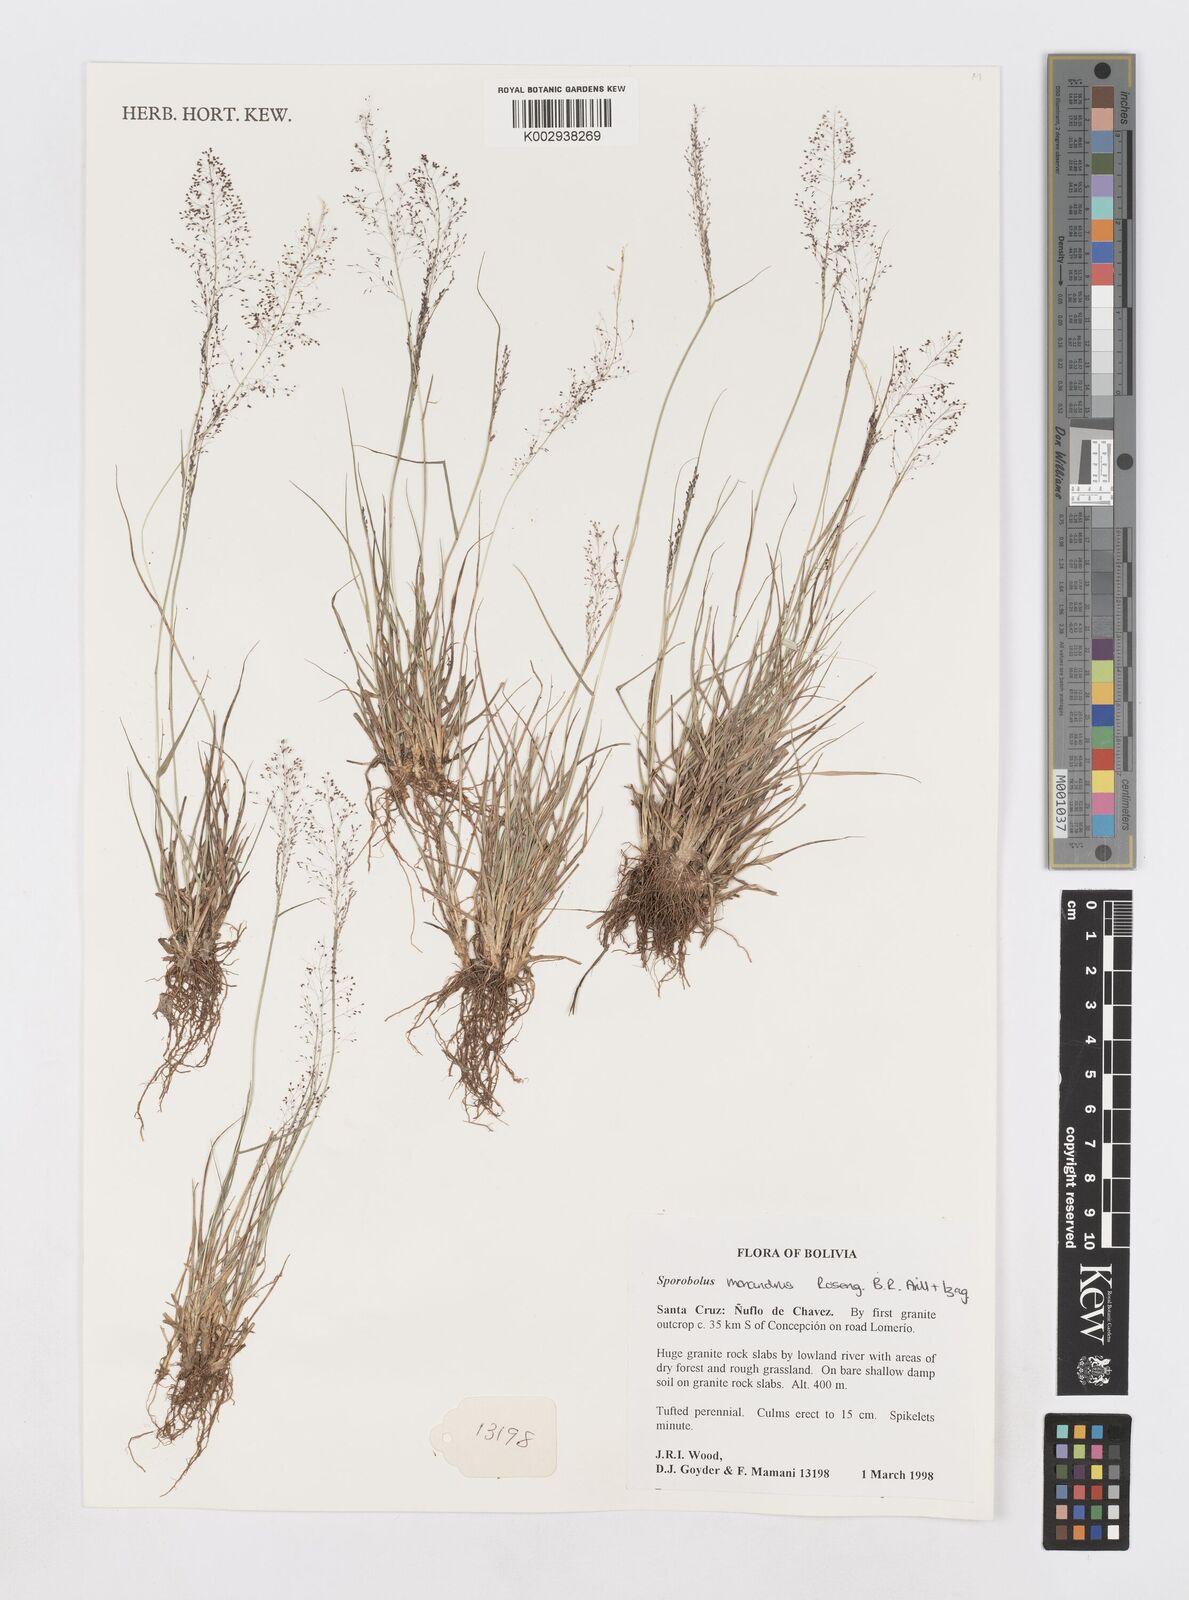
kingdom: Plantae
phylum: Tracheophyta
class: Liliopsida
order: Poales
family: Poaceae
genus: Sporobolus
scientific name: Sporobolus monandrus
